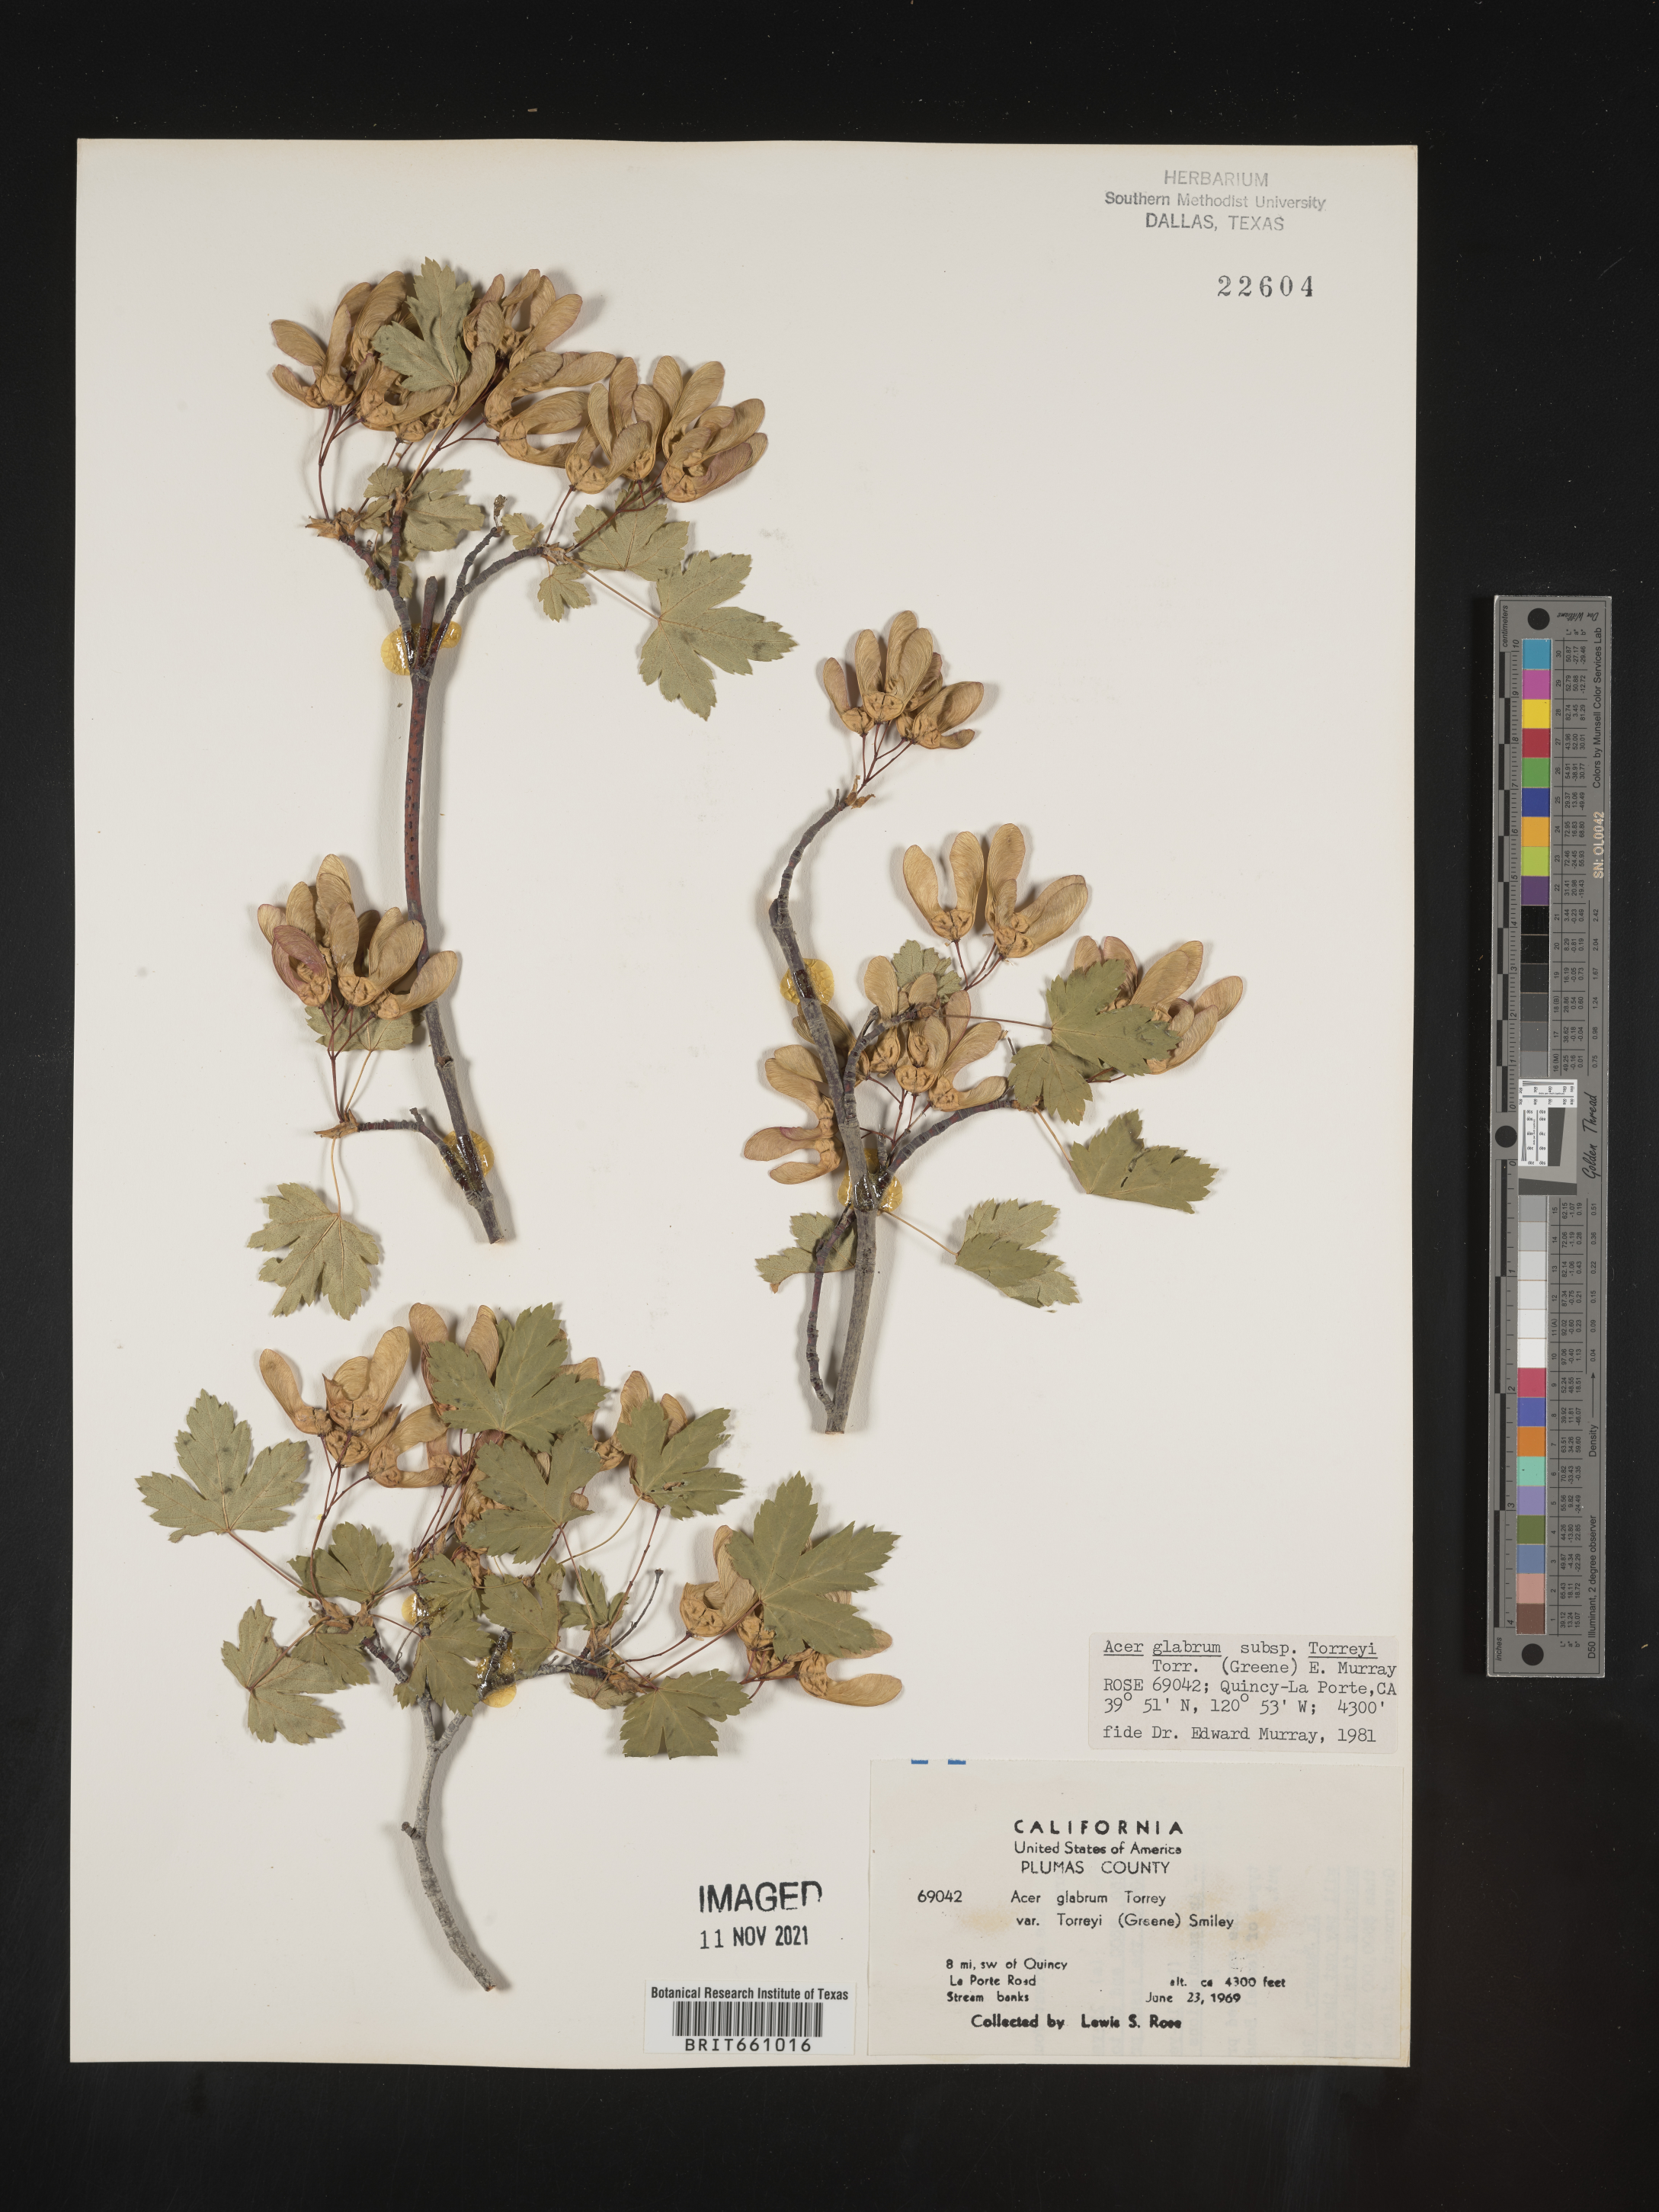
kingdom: Plantae
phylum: Tracheophyta
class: Magnoliopsida
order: Sapindales
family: Sapindaceae
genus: Acer
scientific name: Acer glabrum
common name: Rocky mountain maple
